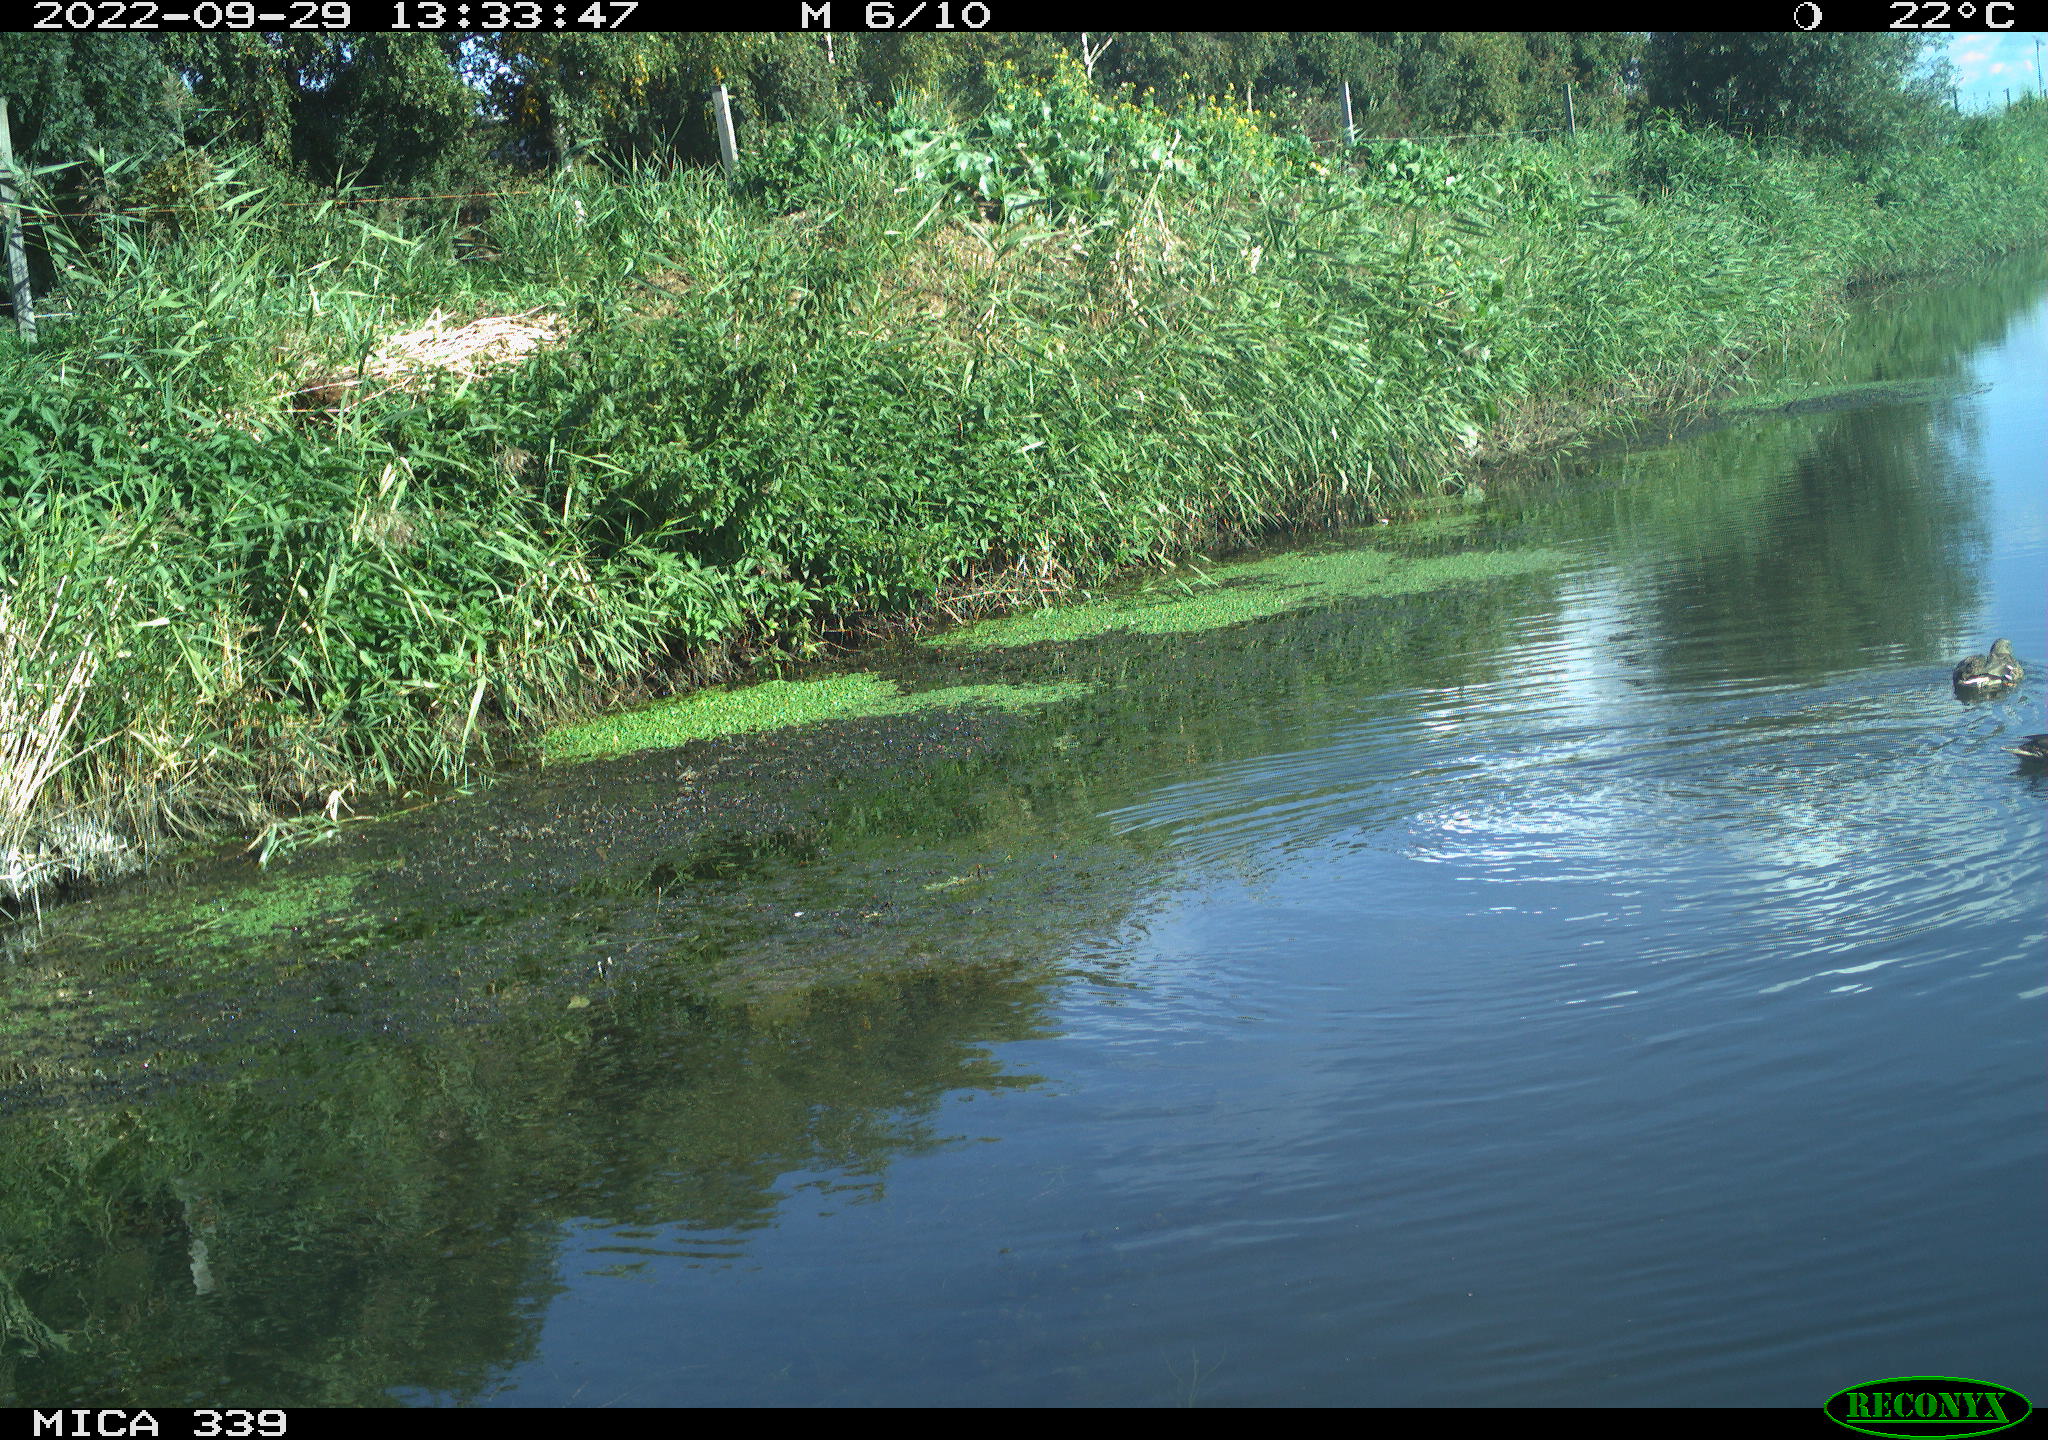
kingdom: Animalia
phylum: Chordata
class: Aves
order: Anseriformes
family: Anatidae
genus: Anas
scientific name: Anas platyrhynchos
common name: Mallard
